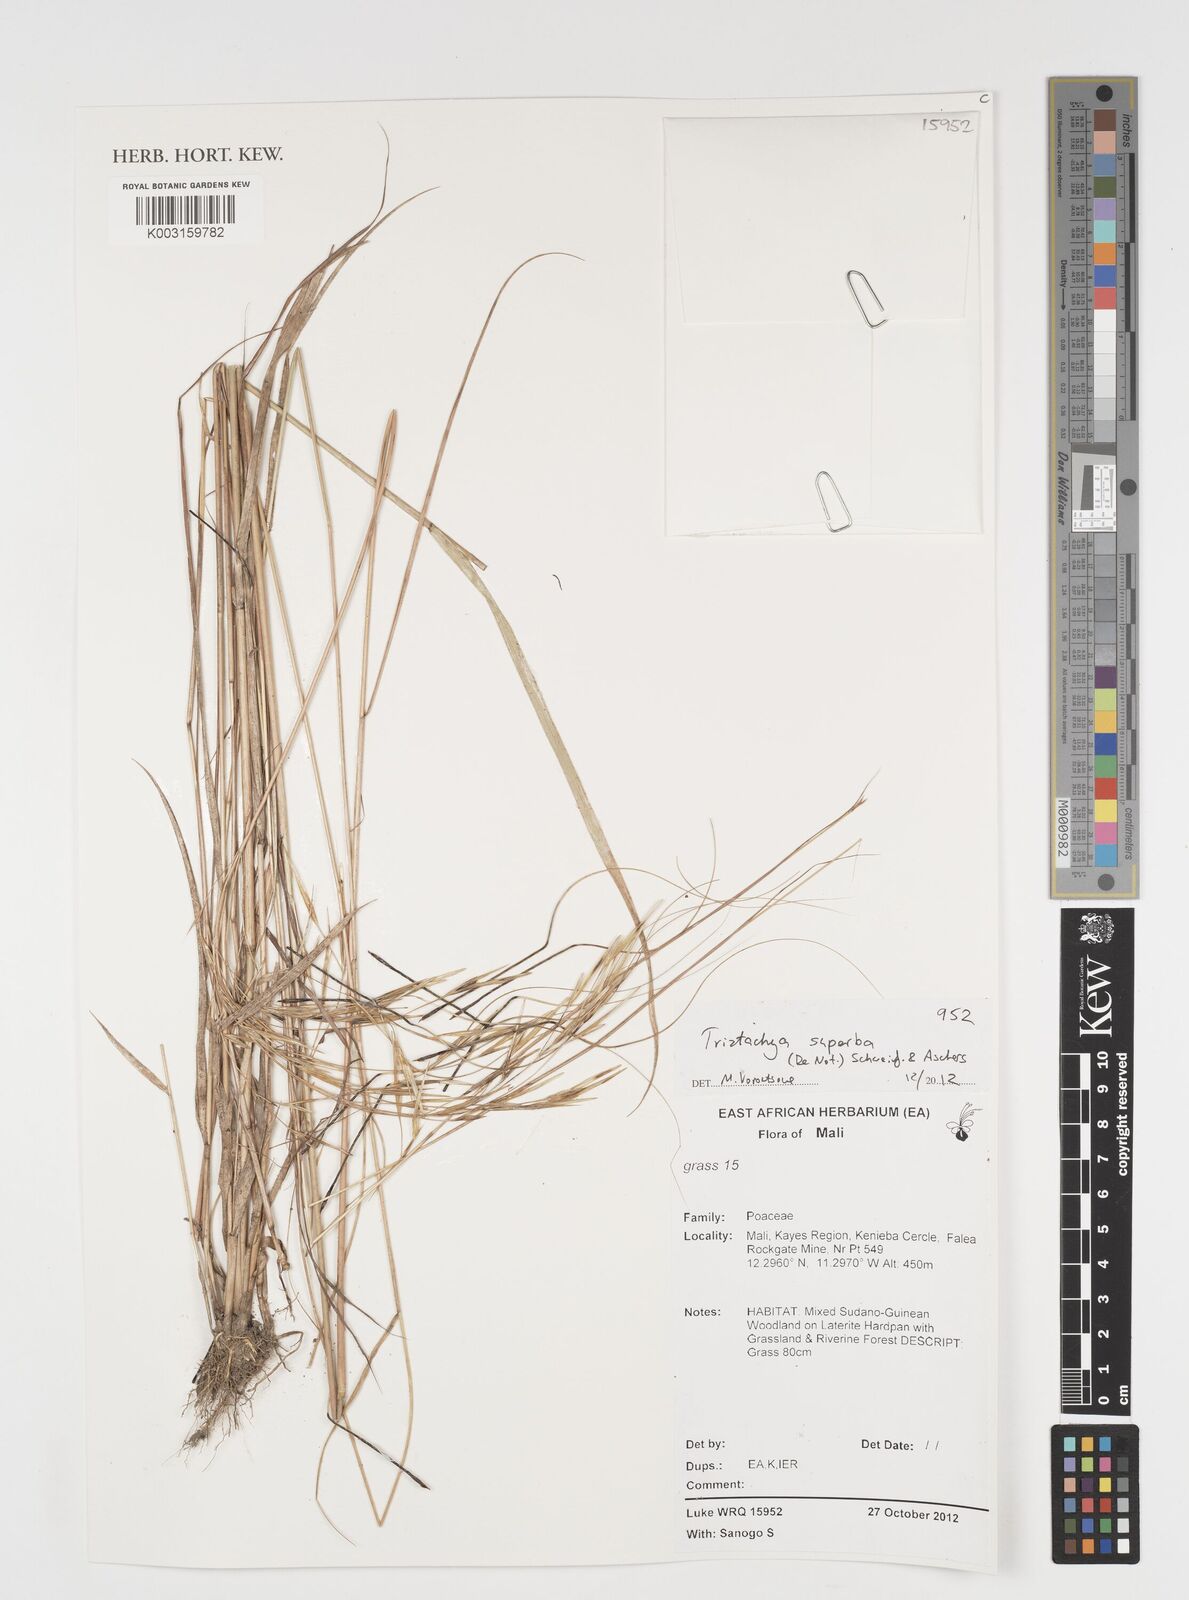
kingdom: Plantae
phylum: Tracheophyta
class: Liliopsida
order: Poales
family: Poaceae
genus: Tristachya
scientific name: Tristachya superba
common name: Giant trident grass
